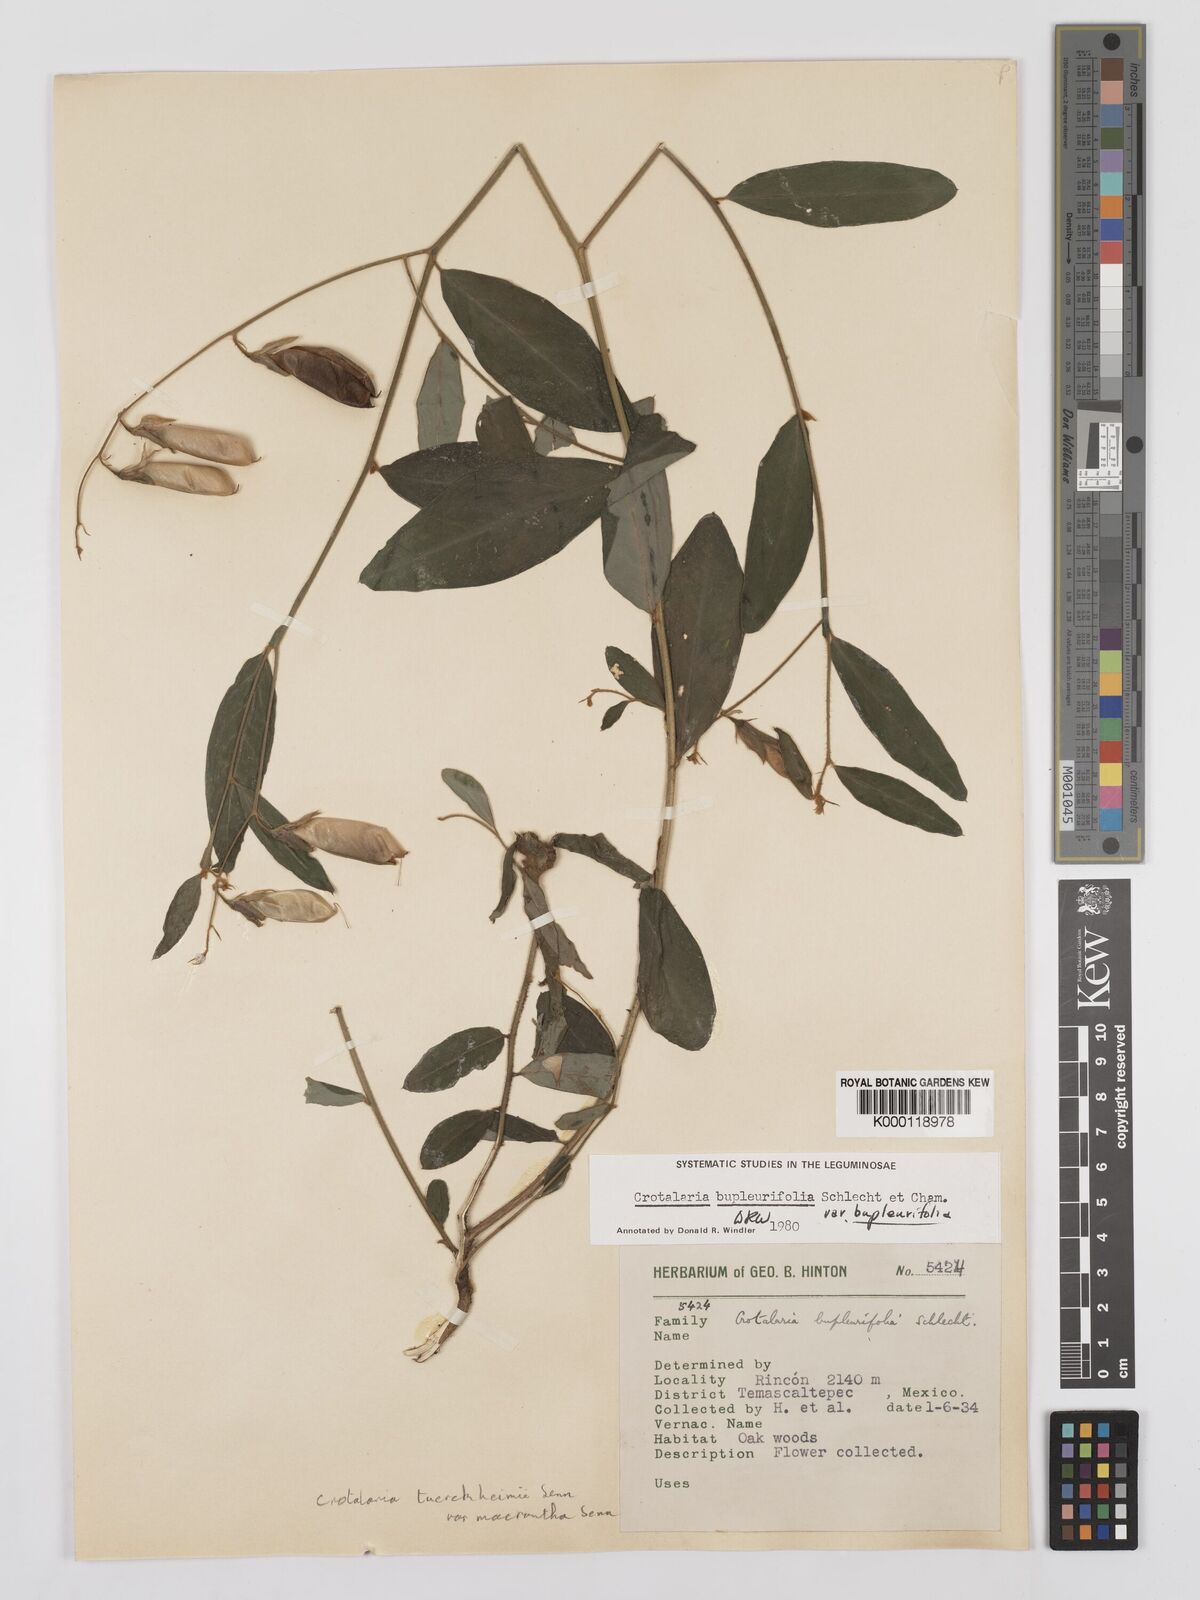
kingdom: Plantae
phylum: Tracheophyta
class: Magnoliopsida
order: Fabales
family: Fabaceae
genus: Crotalaria
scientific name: Crotalaria bupleurifolia
